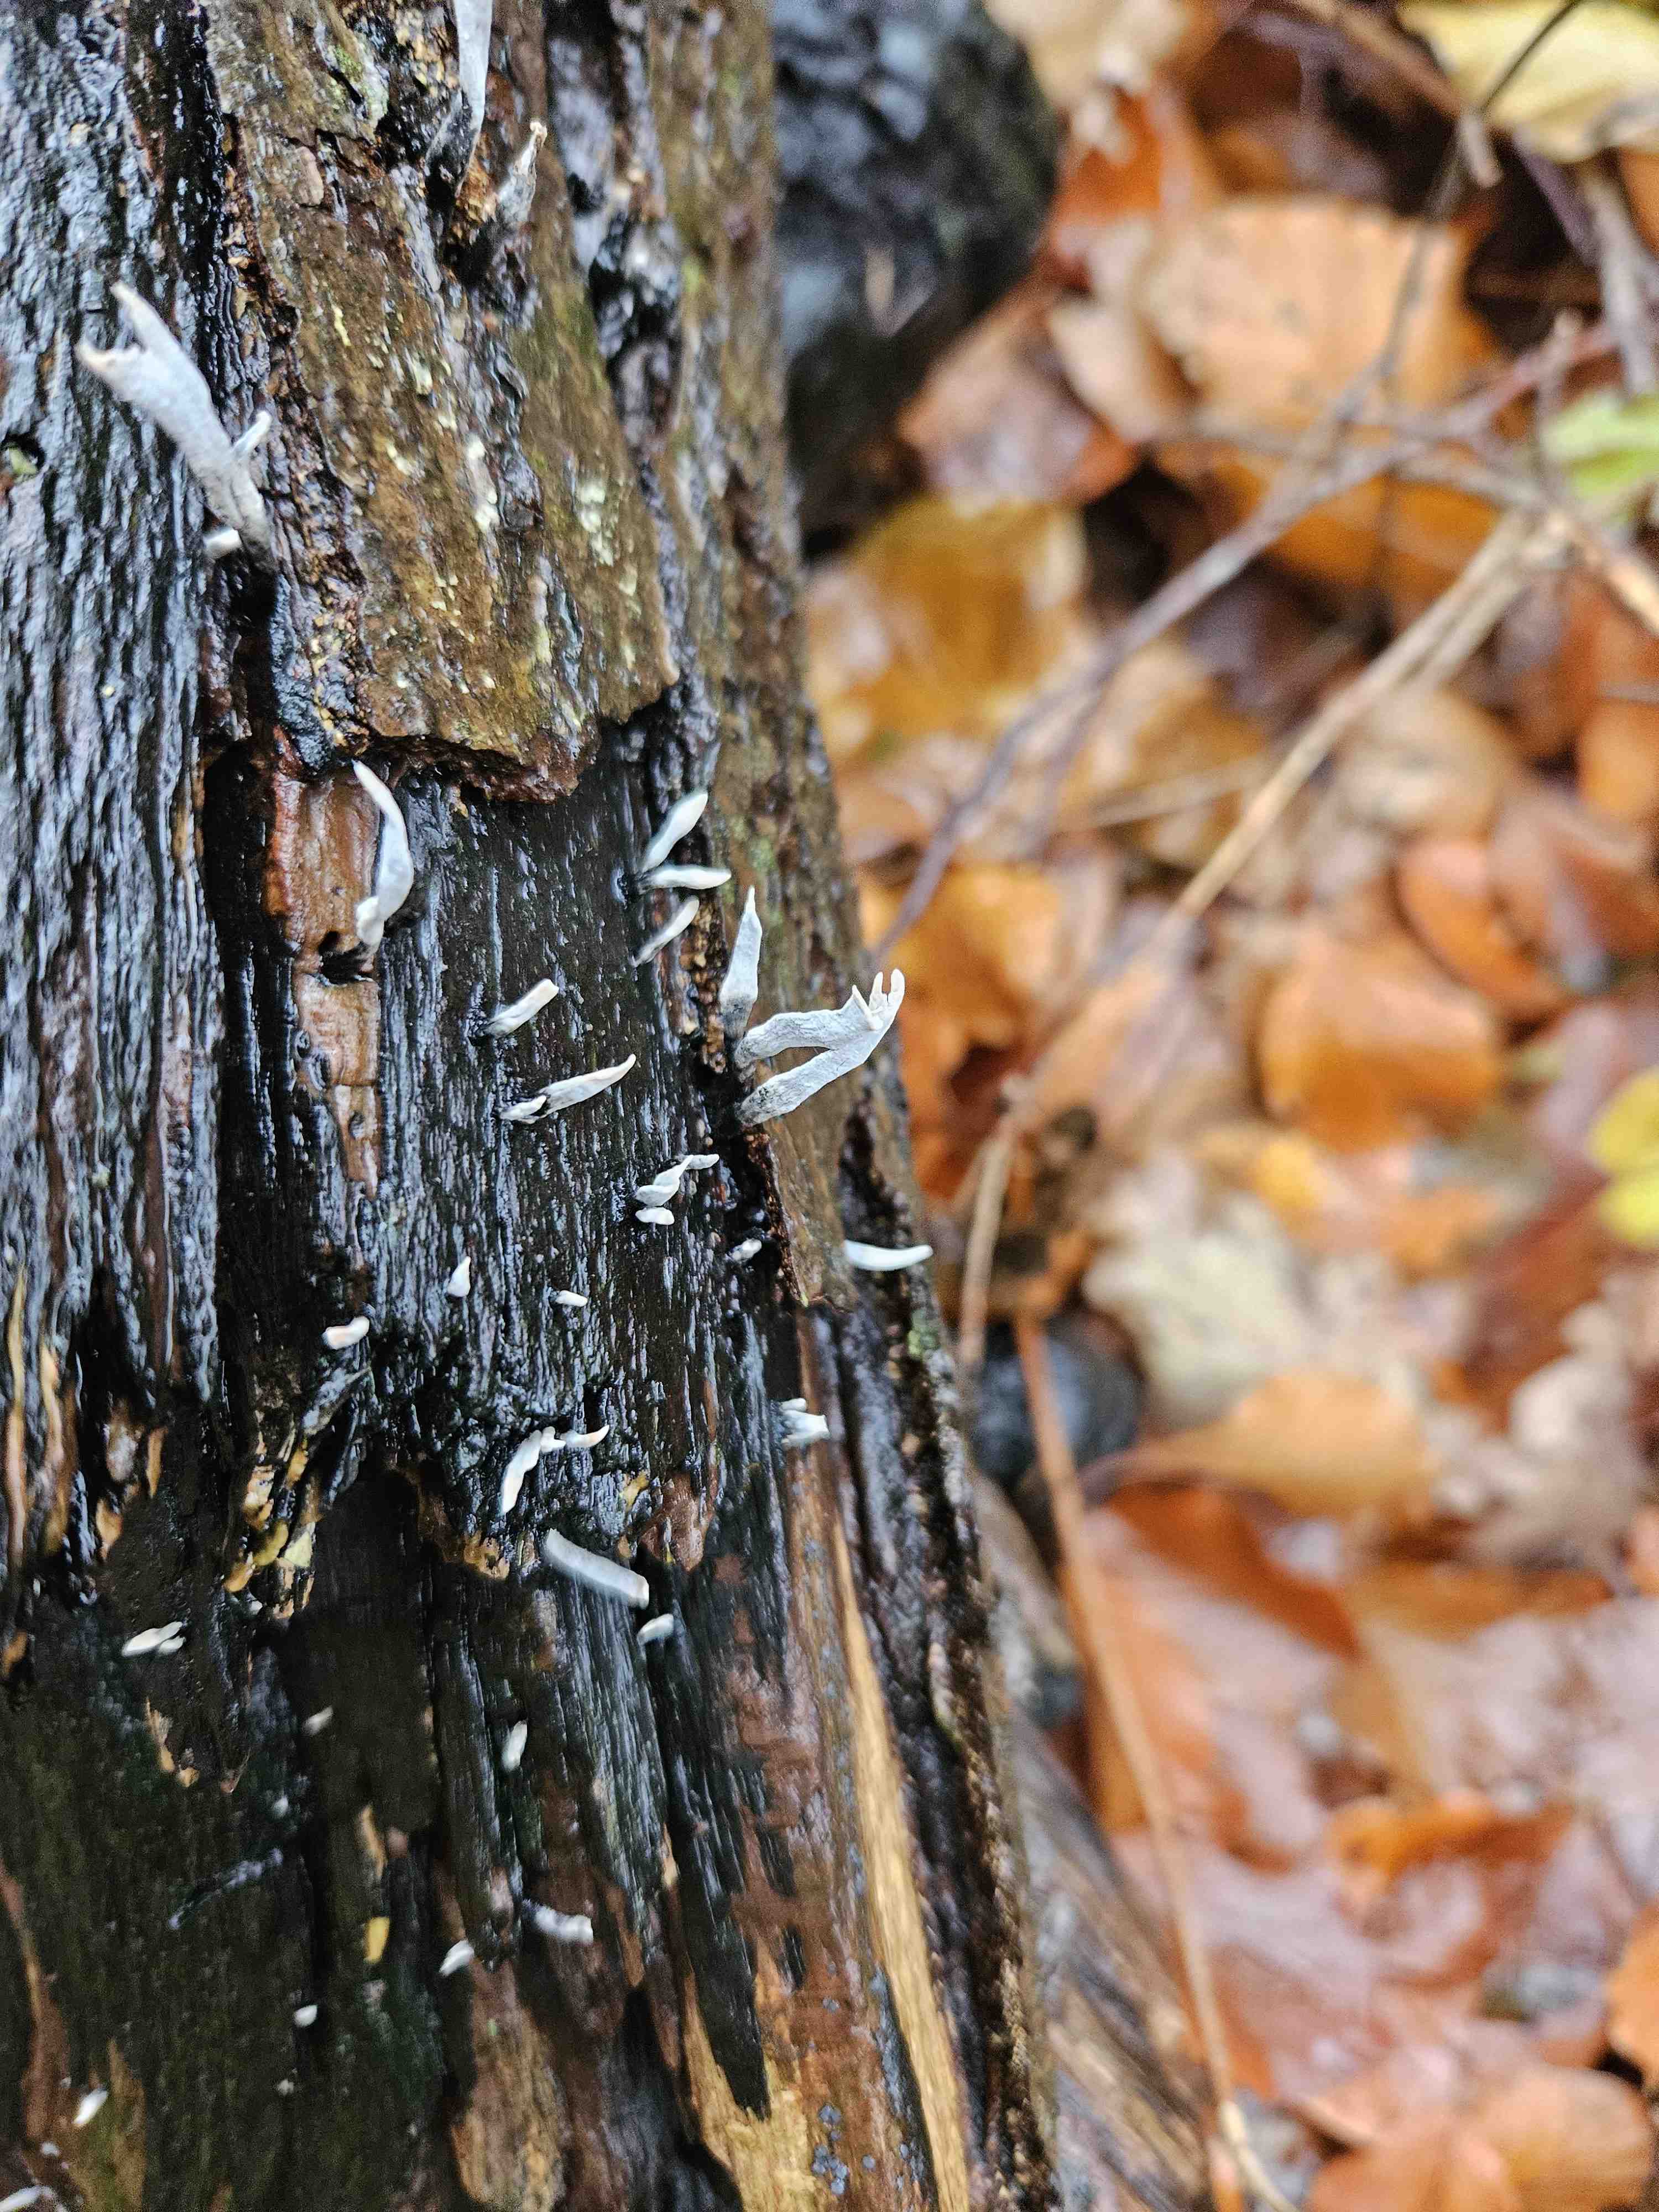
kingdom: Fungi
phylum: Ascomycota
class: Sordariomycetes
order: Xylariales
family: Xylariaceae
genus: Xylaria
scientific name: Xylaria hypoxylon
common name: grenet stødsvamp
